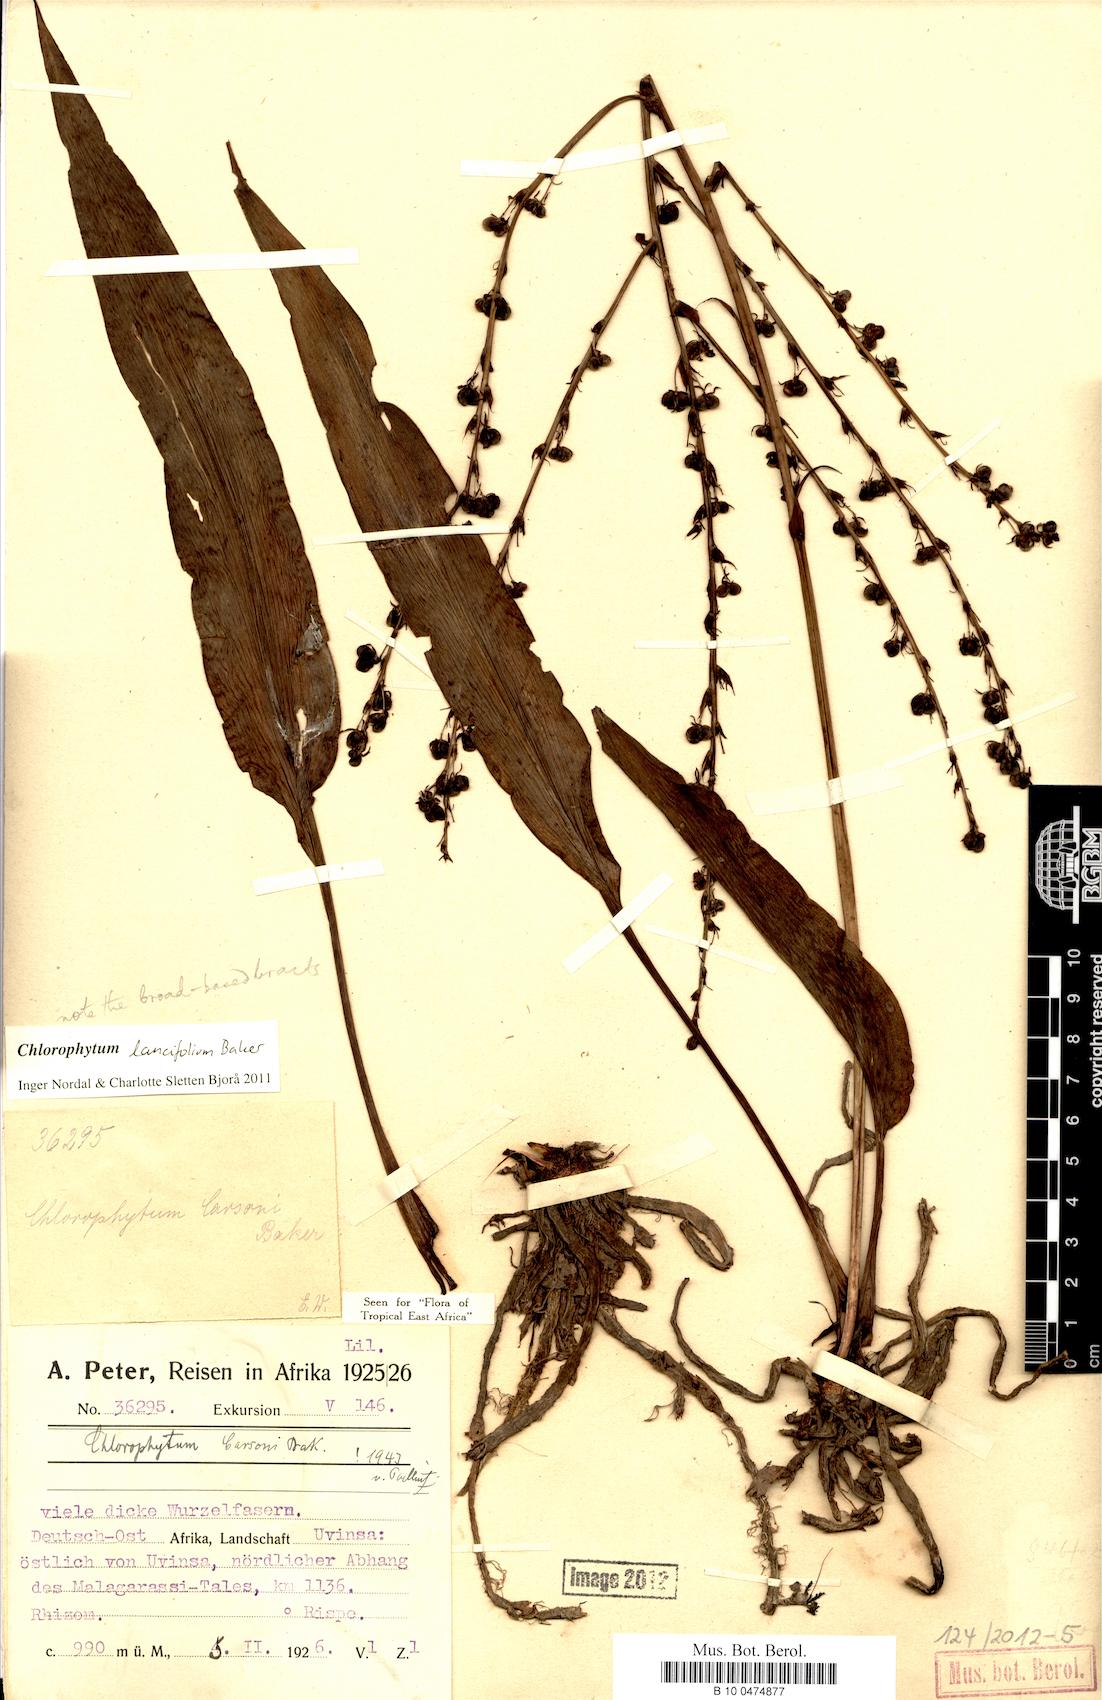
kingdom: Plantae
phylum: Tracheophyta
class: Liliopsida
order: Asparagales
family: Asparagaceae
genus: Chlorophytum
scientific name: Chlorophytum lancifolium
